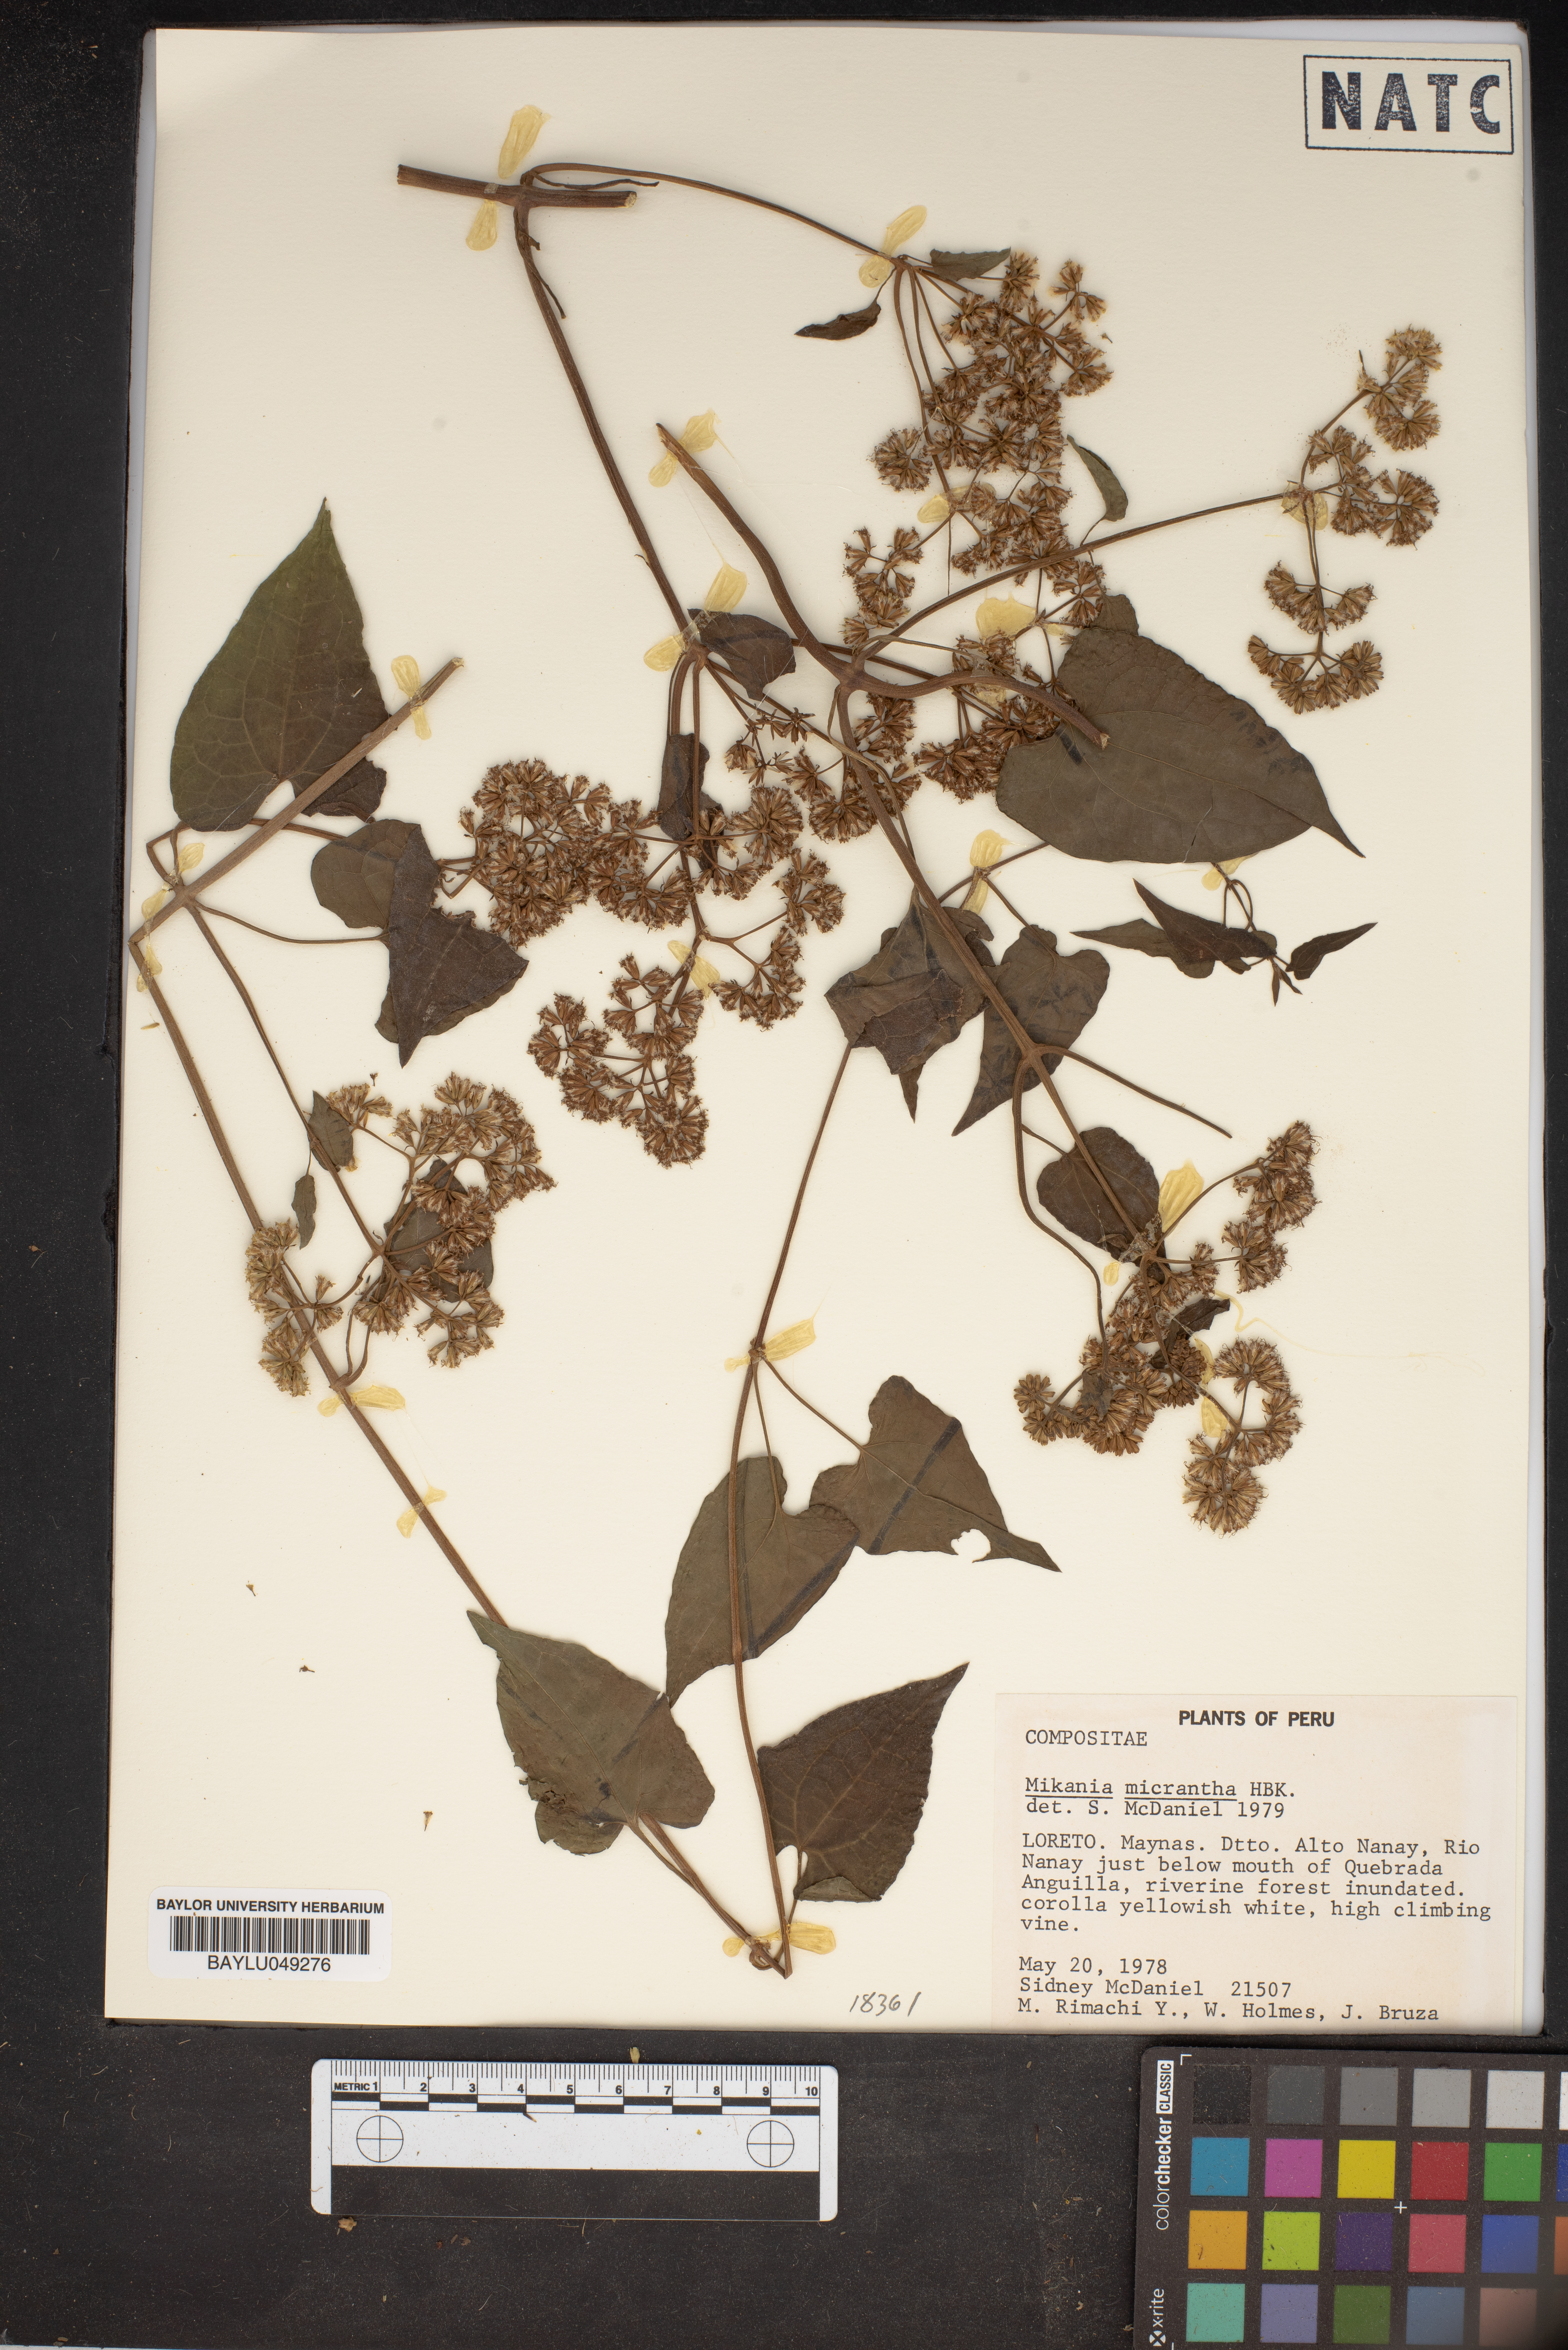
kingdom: Plantae
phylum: Tracheophyta
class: Magnoliopsida
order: Asterales
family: Asteraceae
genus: Mikania
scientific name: Mikania micrantha
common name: Mile-a-minute
